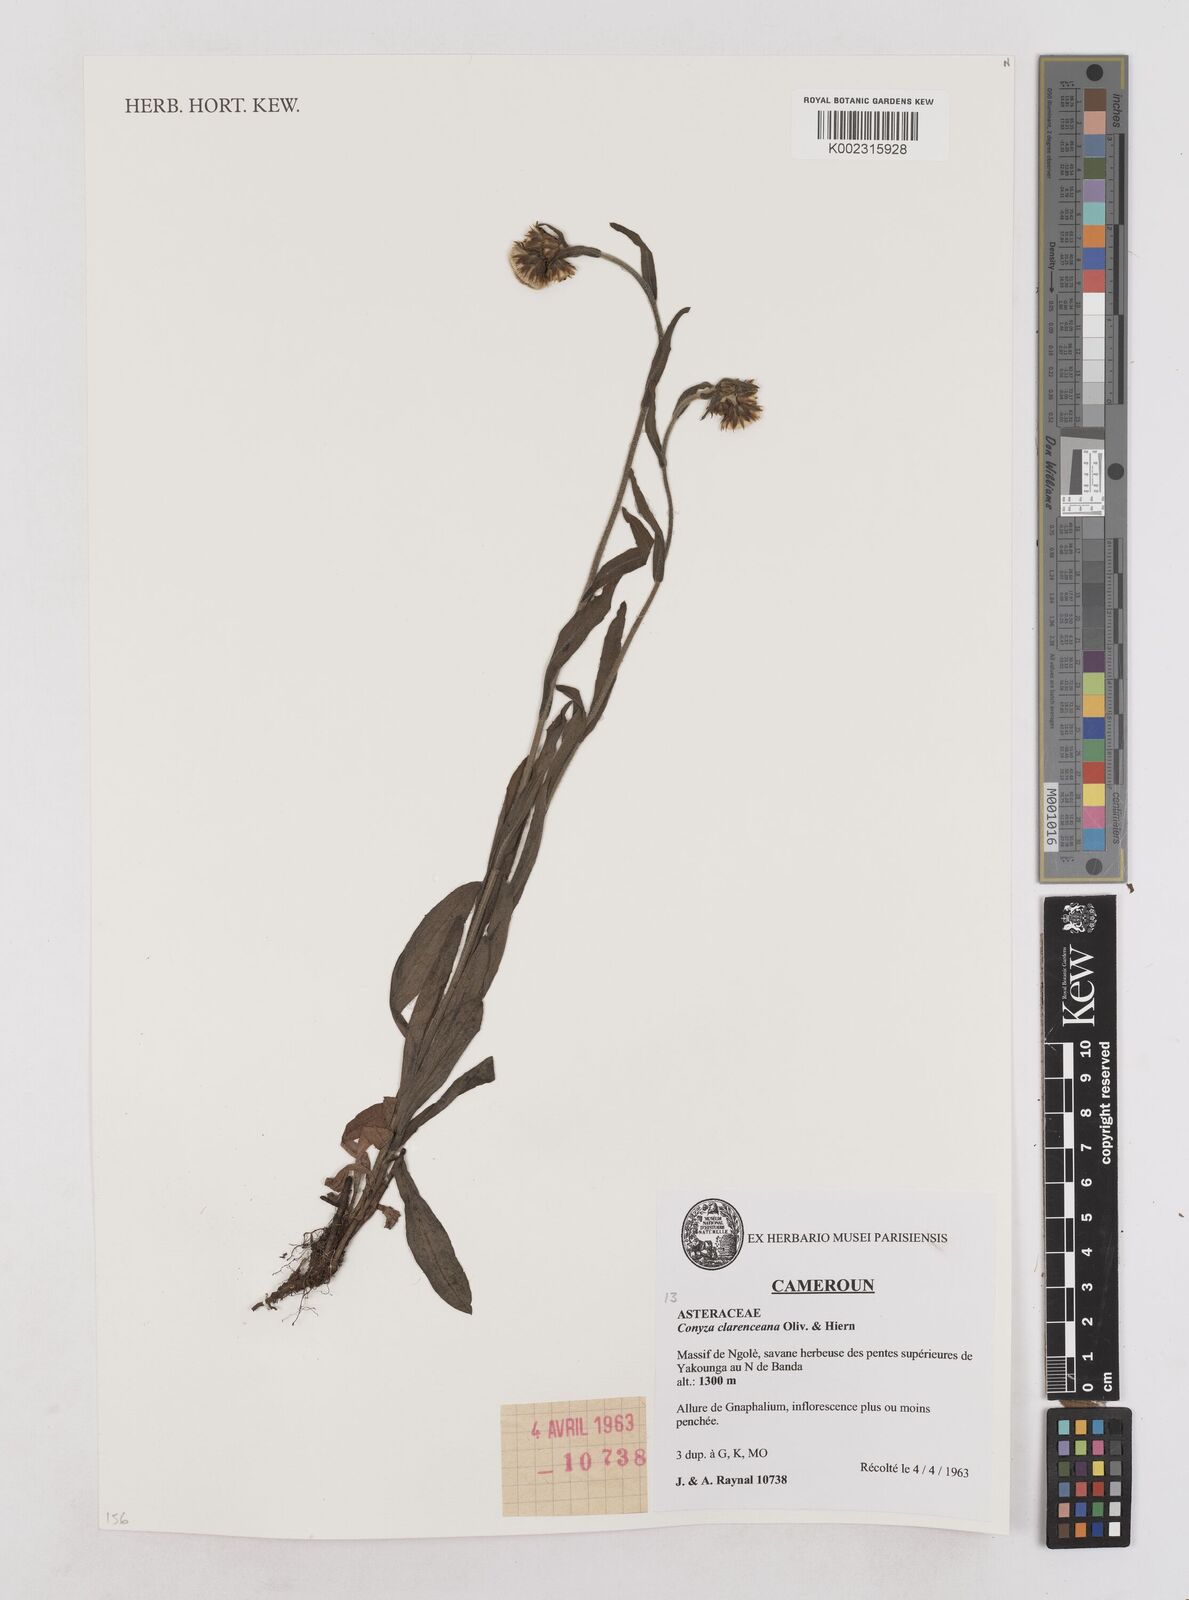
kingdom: Plantae
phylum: Tracheophyta
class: Magnoliopsida
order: Asterales
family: Asteraceae
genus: Conyza
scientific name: Conyza baumii
